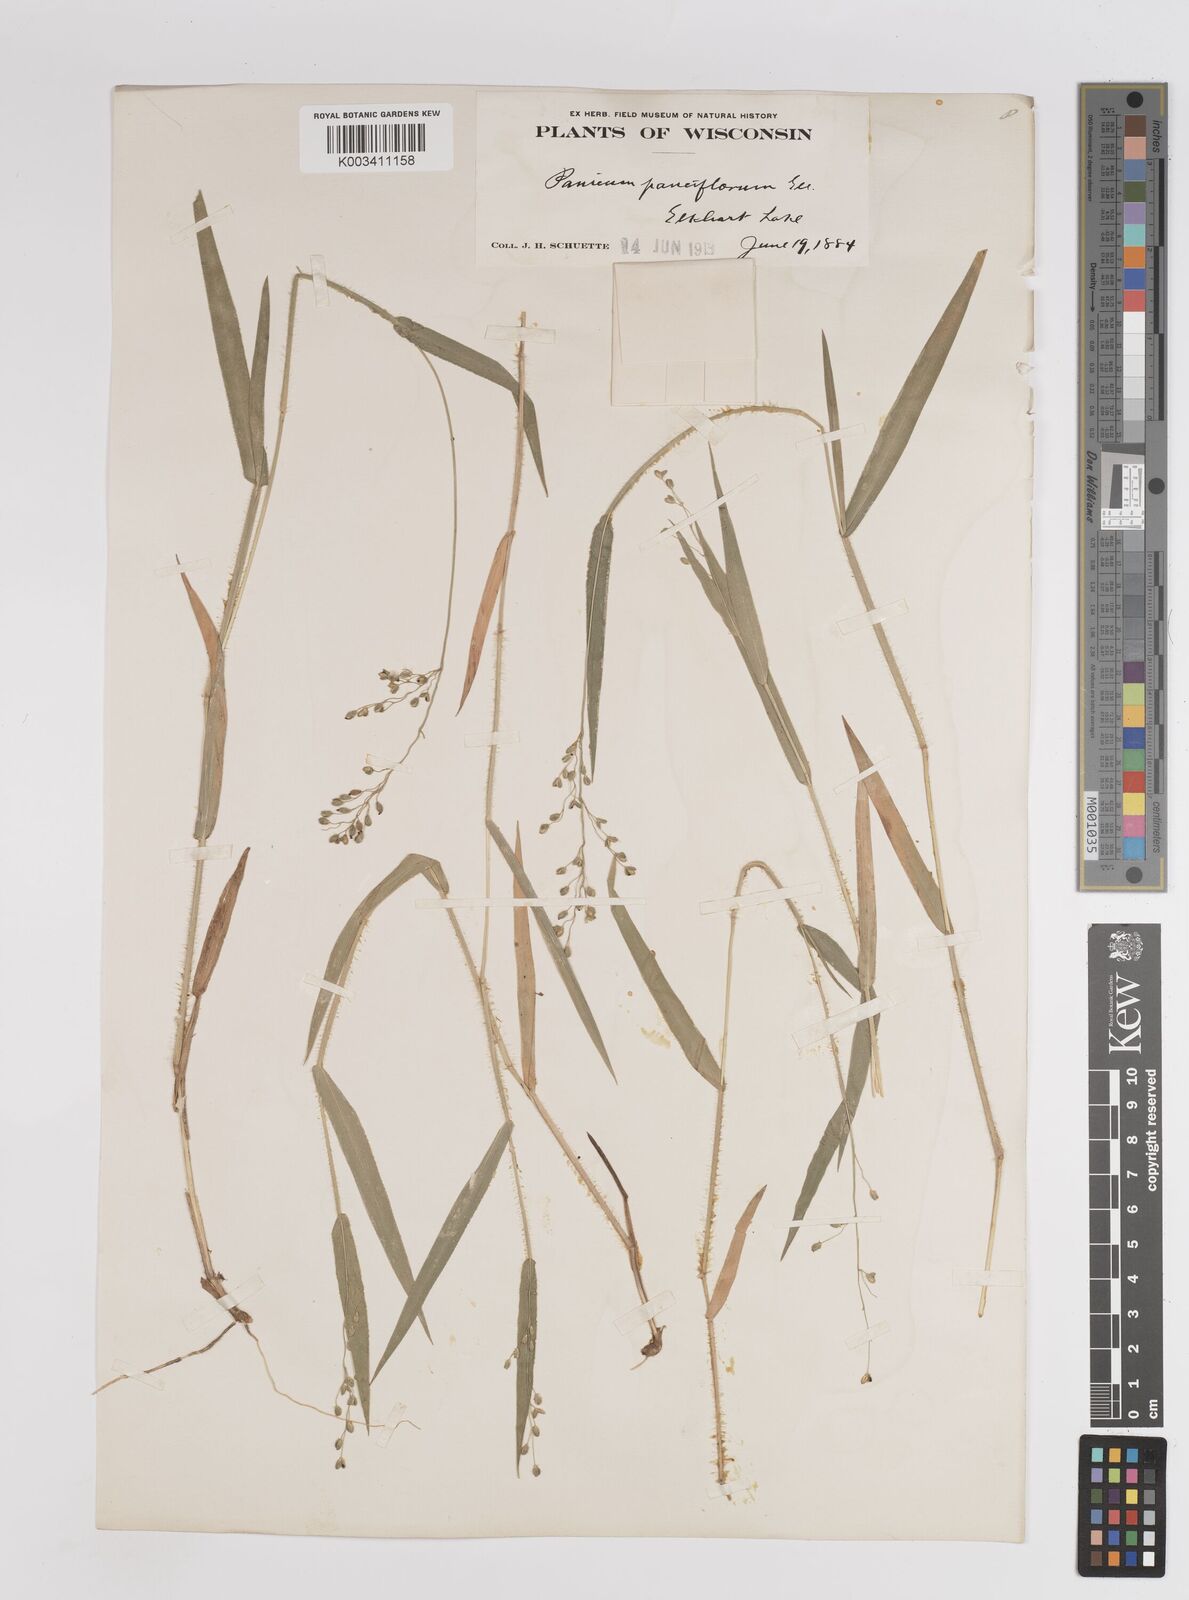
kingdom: Plantae
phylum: Tracheophyta
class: Liliopsida
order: Poales
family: Poaceae
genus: Dichanthelium
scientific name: Dichanthelium oligosanthes
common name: Few-anther obscuregrass
